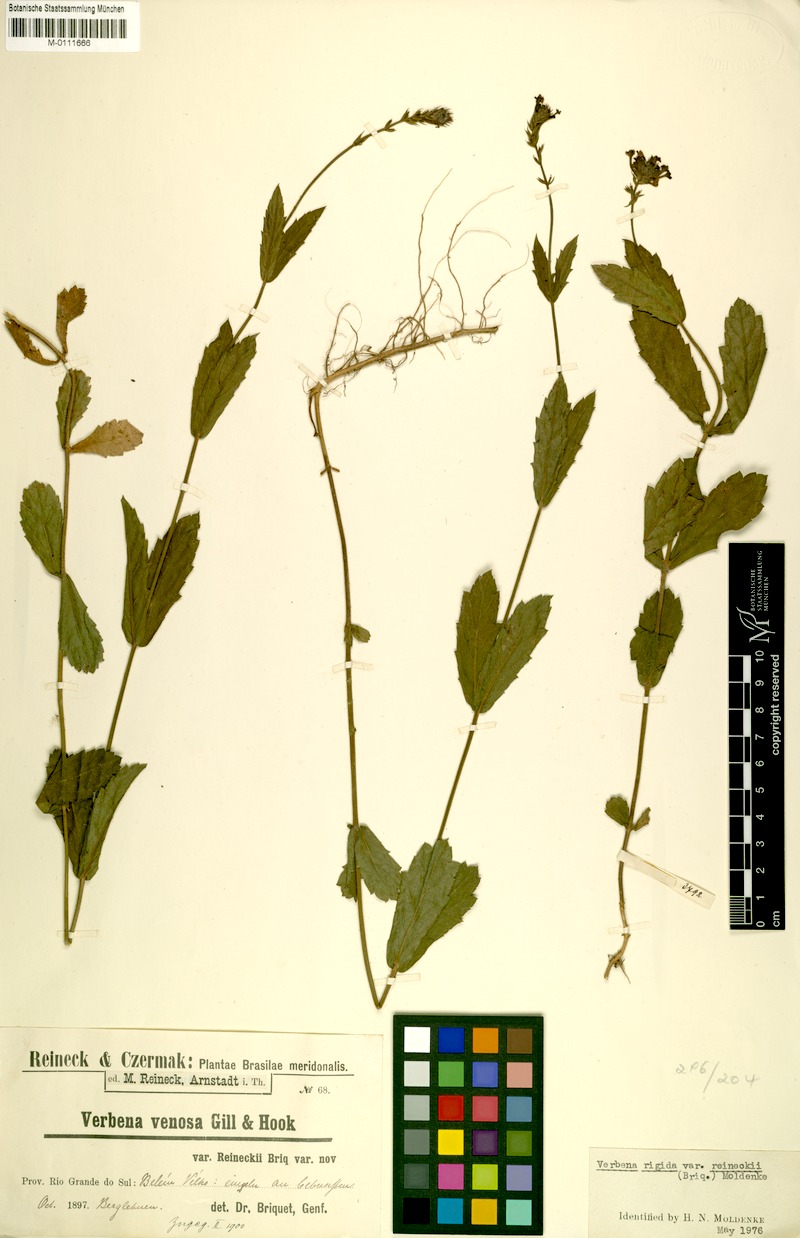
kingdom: Plantae
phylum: Tracheophyta
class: Magnoliopsida
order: Lamiales
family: Verbenaceae
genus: Verbena
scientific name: Verbena rigida
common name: Slender vervain
